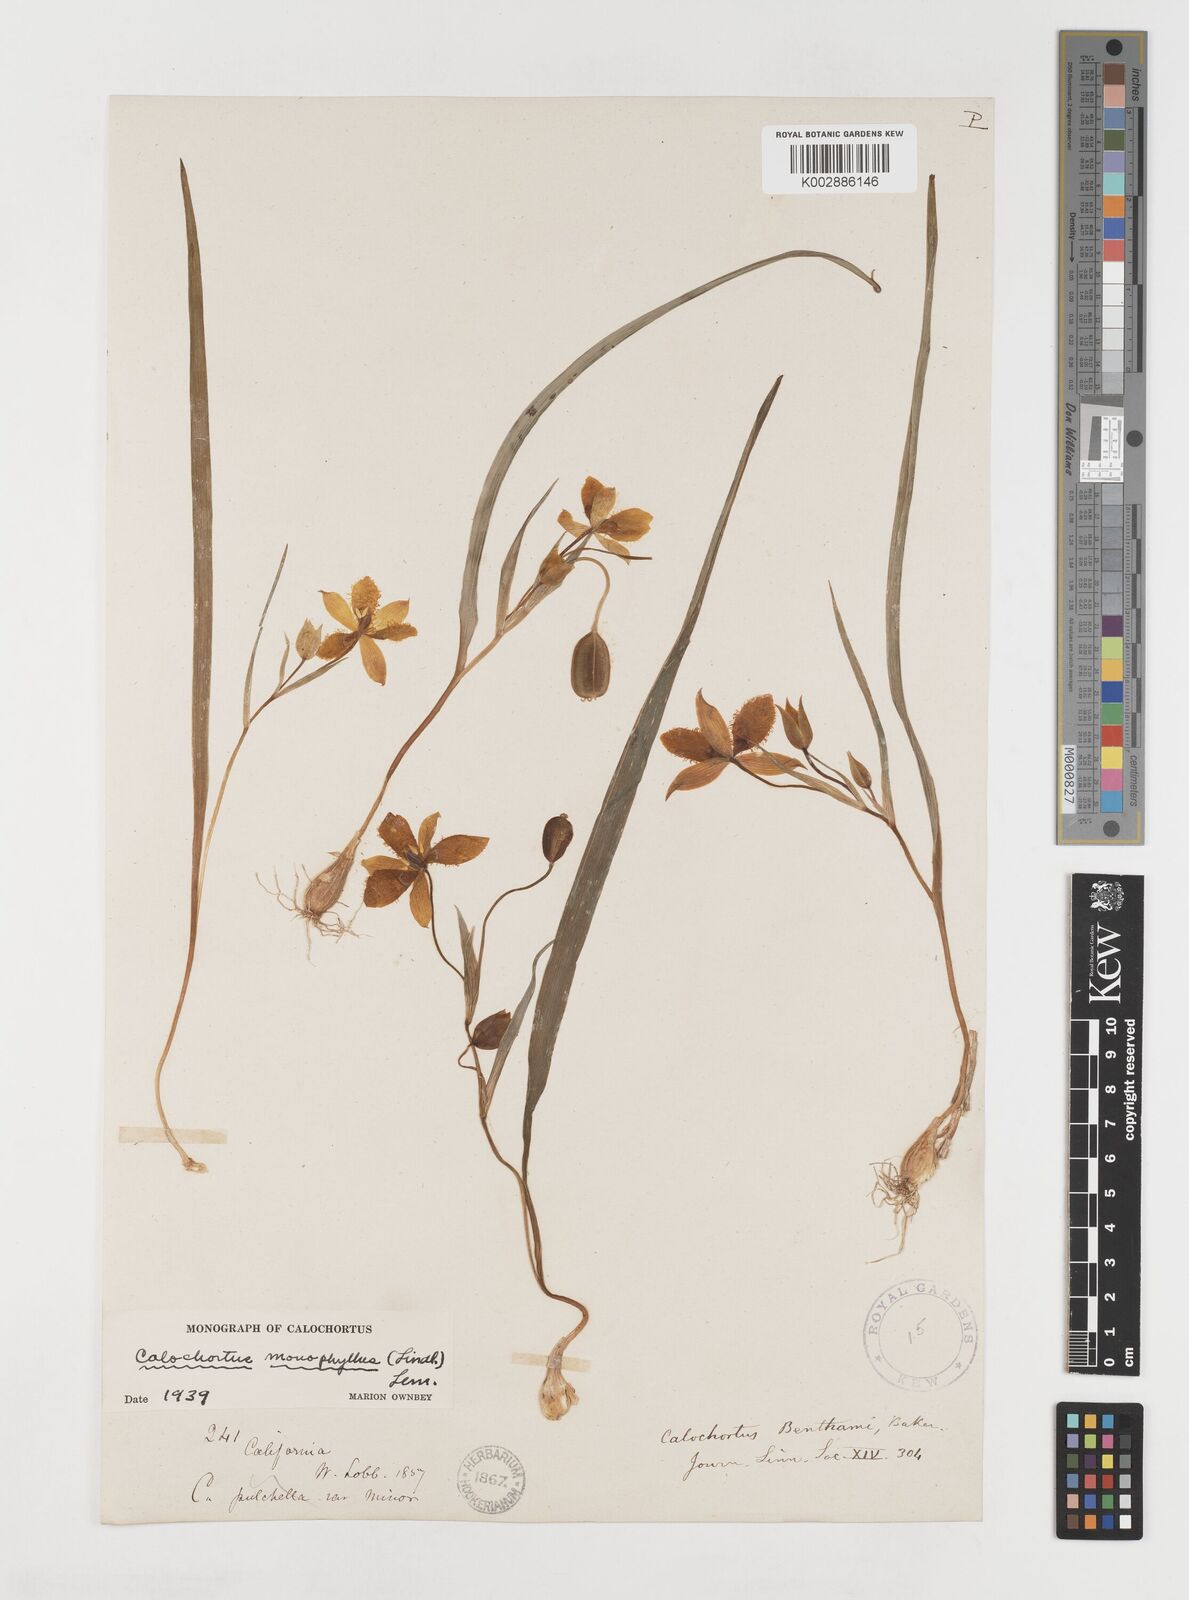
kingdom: Plantae
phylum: Tracheophyta
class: Liliopsida
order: Liliales
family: Liliaceae
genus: Calochortus
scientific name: Calochortus monophyllus
